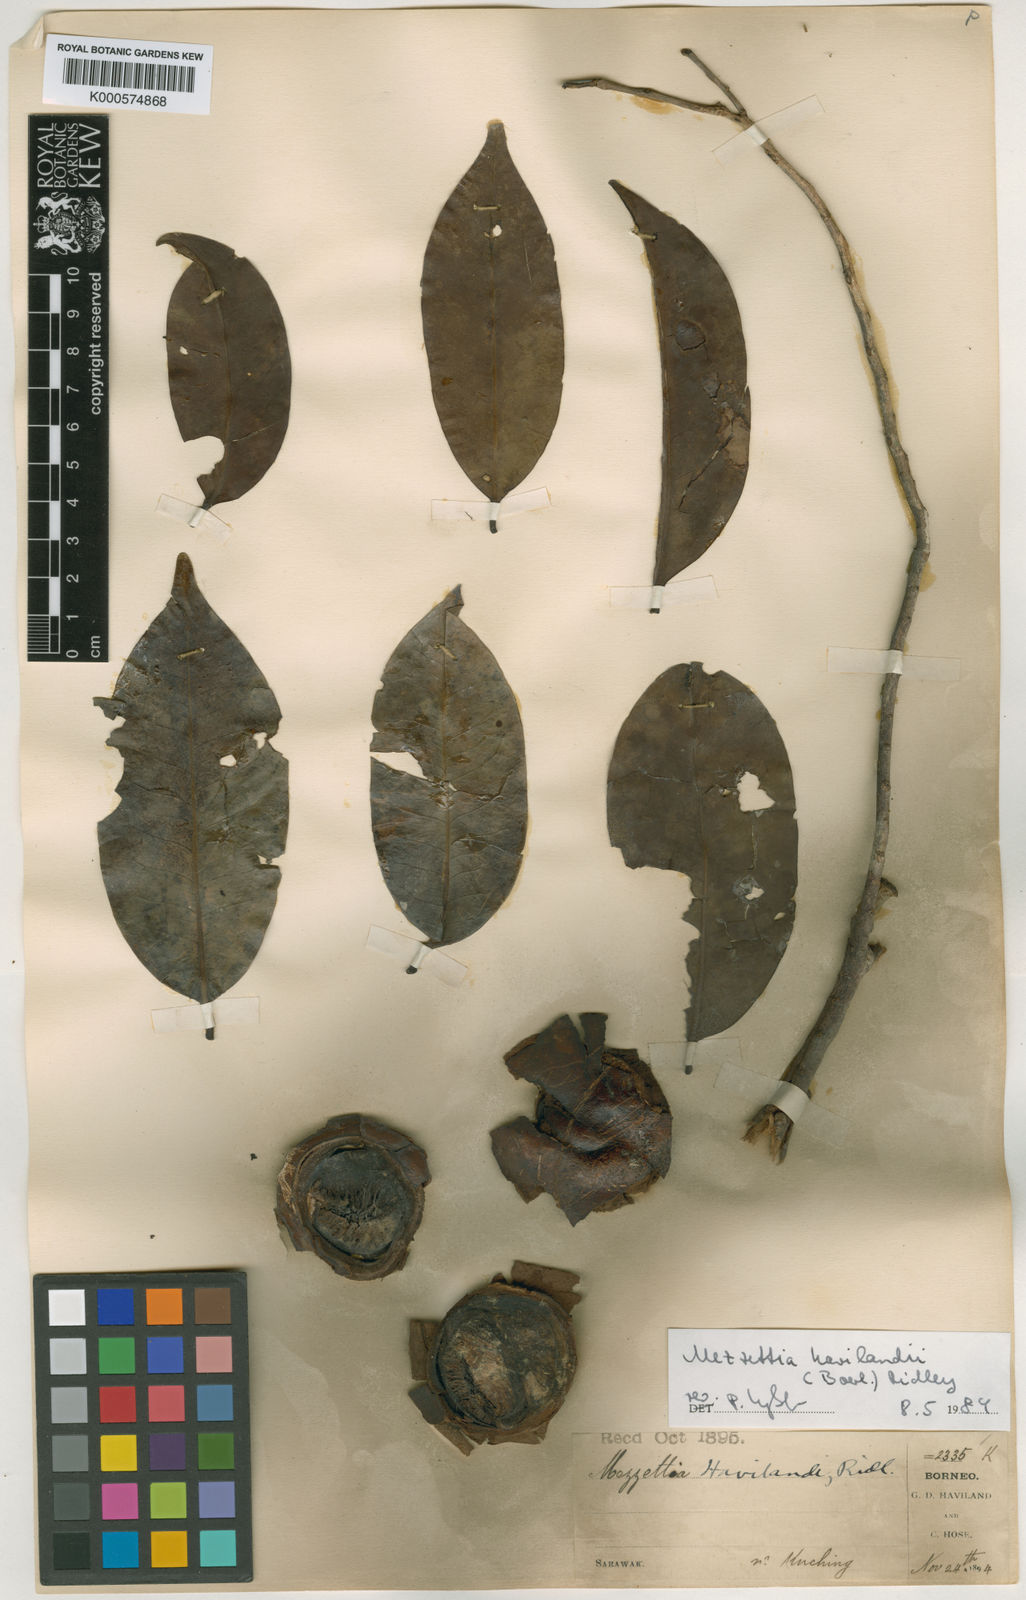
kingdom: Plantae
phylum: Tracheophyta
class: Magnoliopsida
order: Magnoliales
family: Annonaceae
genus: Mezzettia
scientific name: Mezzettia havilandii
